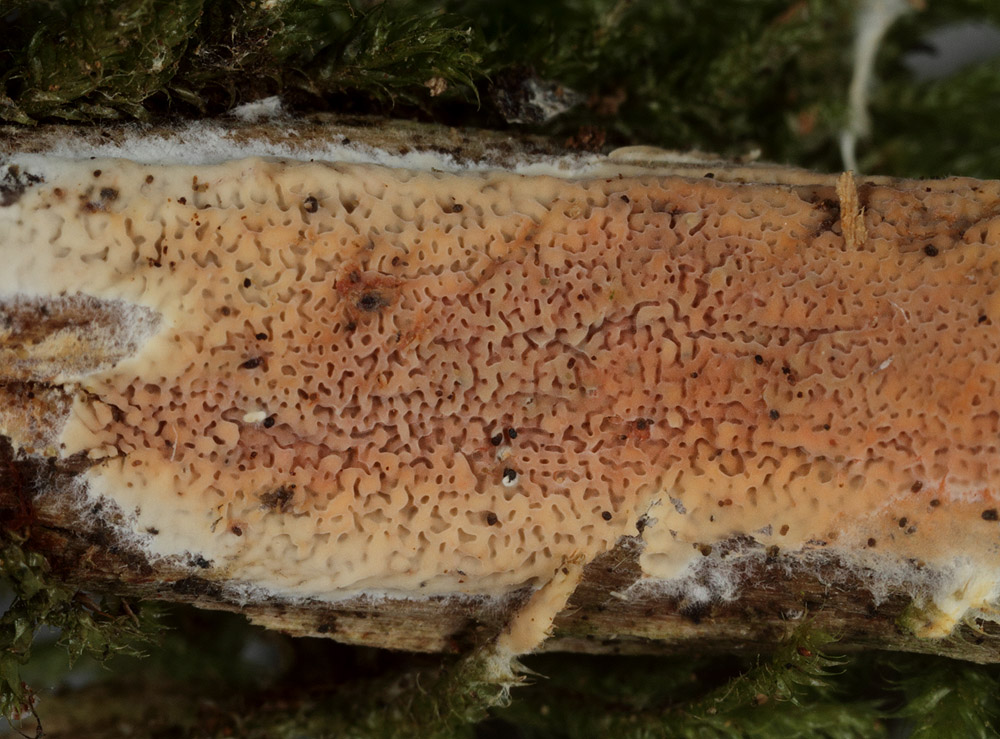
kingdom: Fungi
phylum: Basidiomycota
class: Agaricomycetes
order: Polyporales
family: Irpicaceae
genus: Crystallicutis
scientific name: Crystallicutis serpens
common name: gråviolet barkhinde
